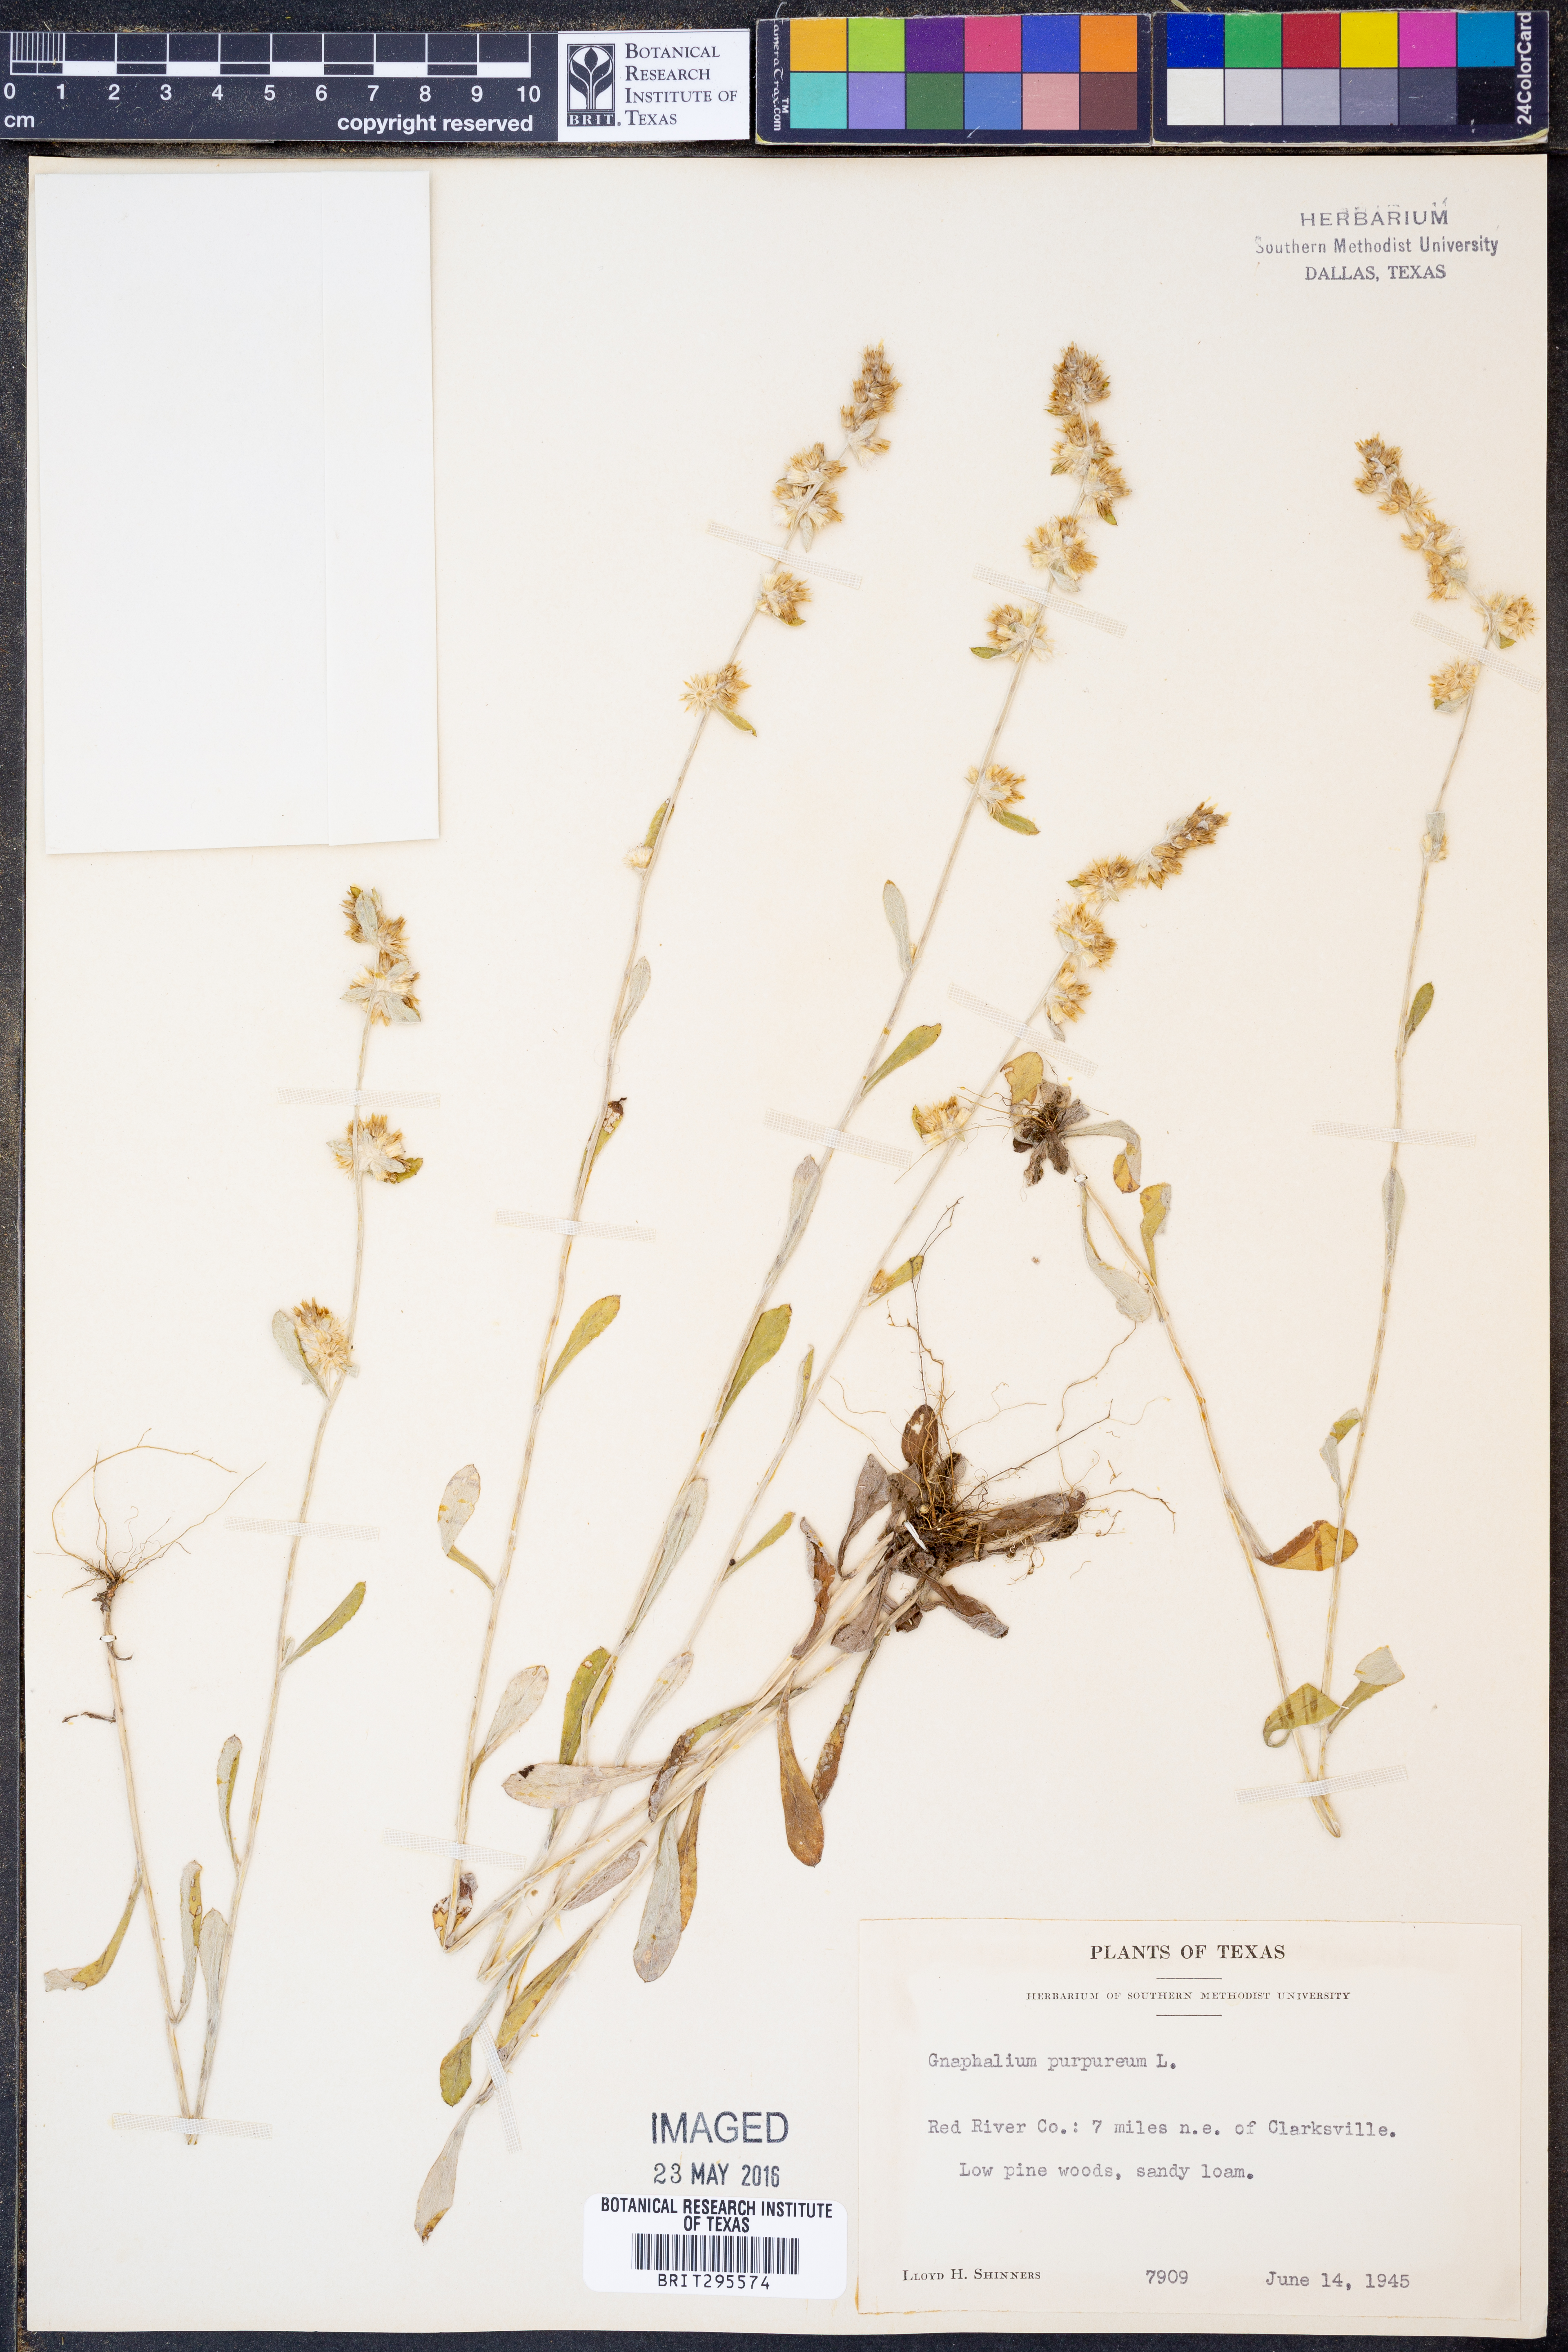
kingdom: Plantae
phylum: Tracheophyta
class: Magnoliopsida
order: Asterales
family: Asteraceae
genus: Gamochaeta
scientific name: Gamochaeta purpurea
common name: Purple cudweed
